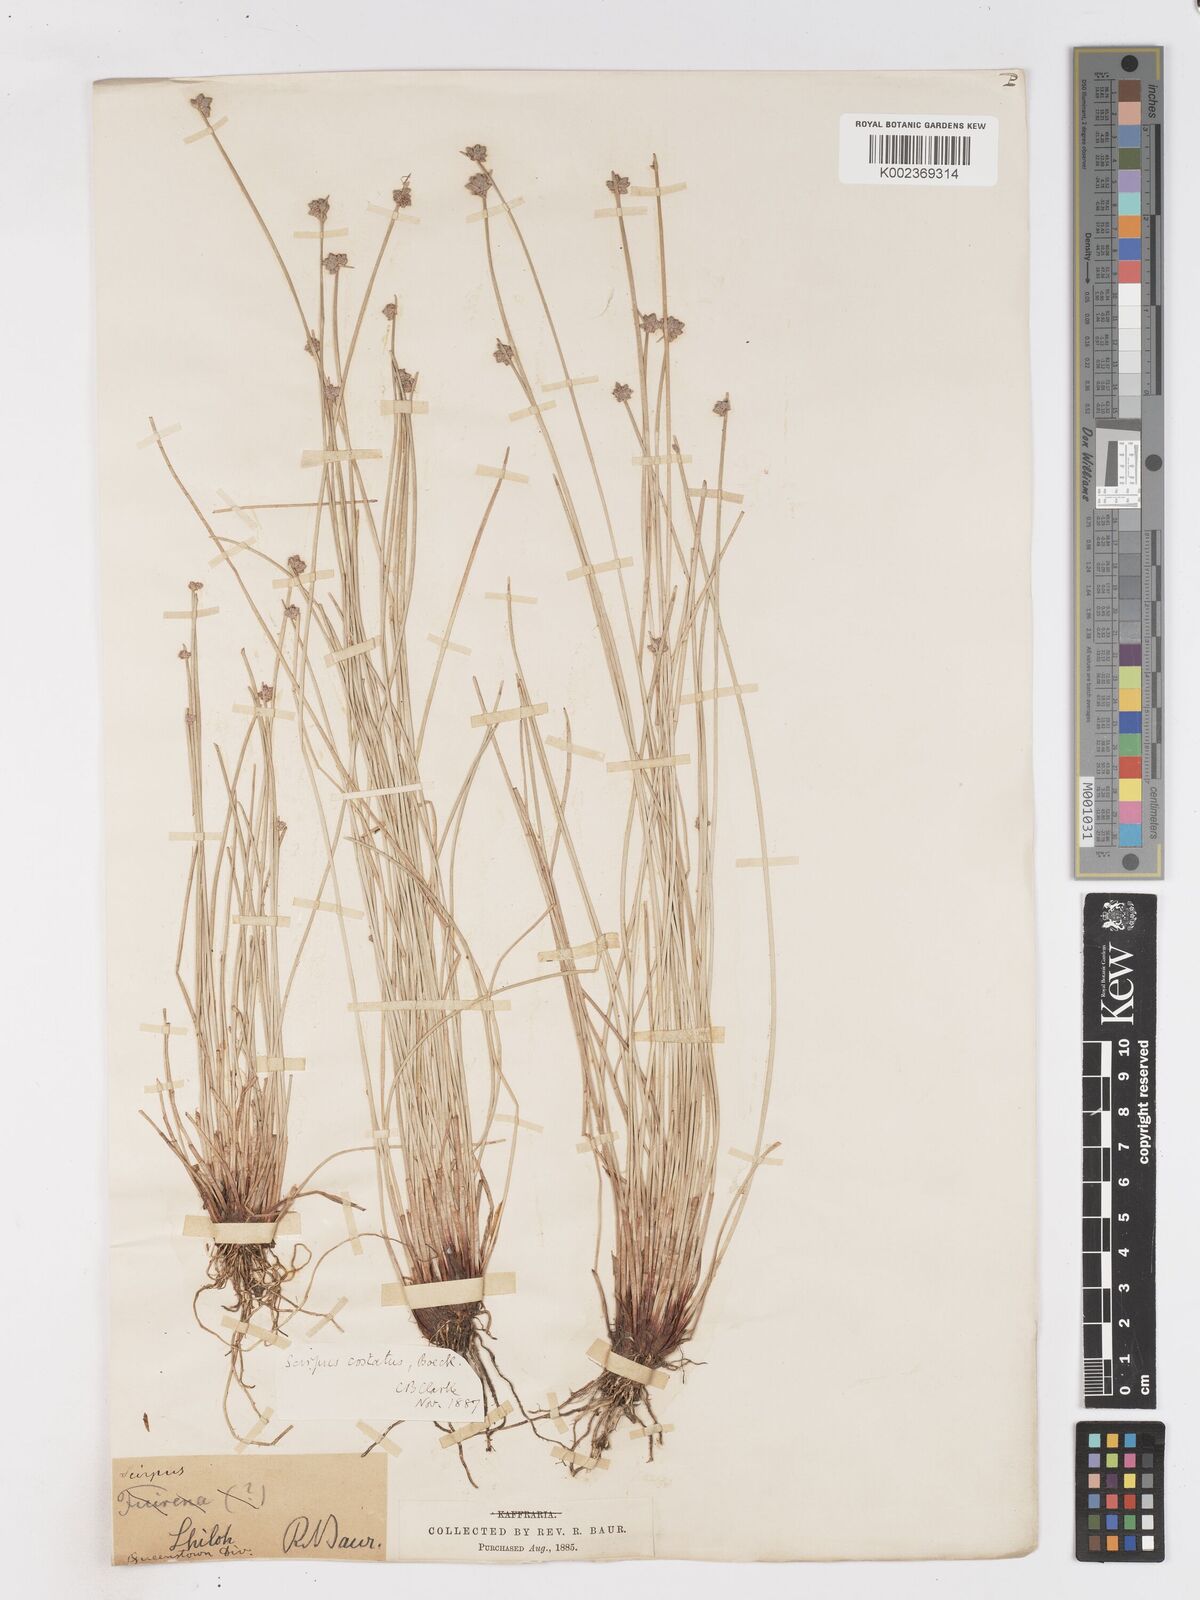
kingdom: Plantae
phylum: Tracheophyta
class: Liliopsida
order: Poales
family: Cyperaceae
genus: Isolepis
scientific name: Isolepis costata
